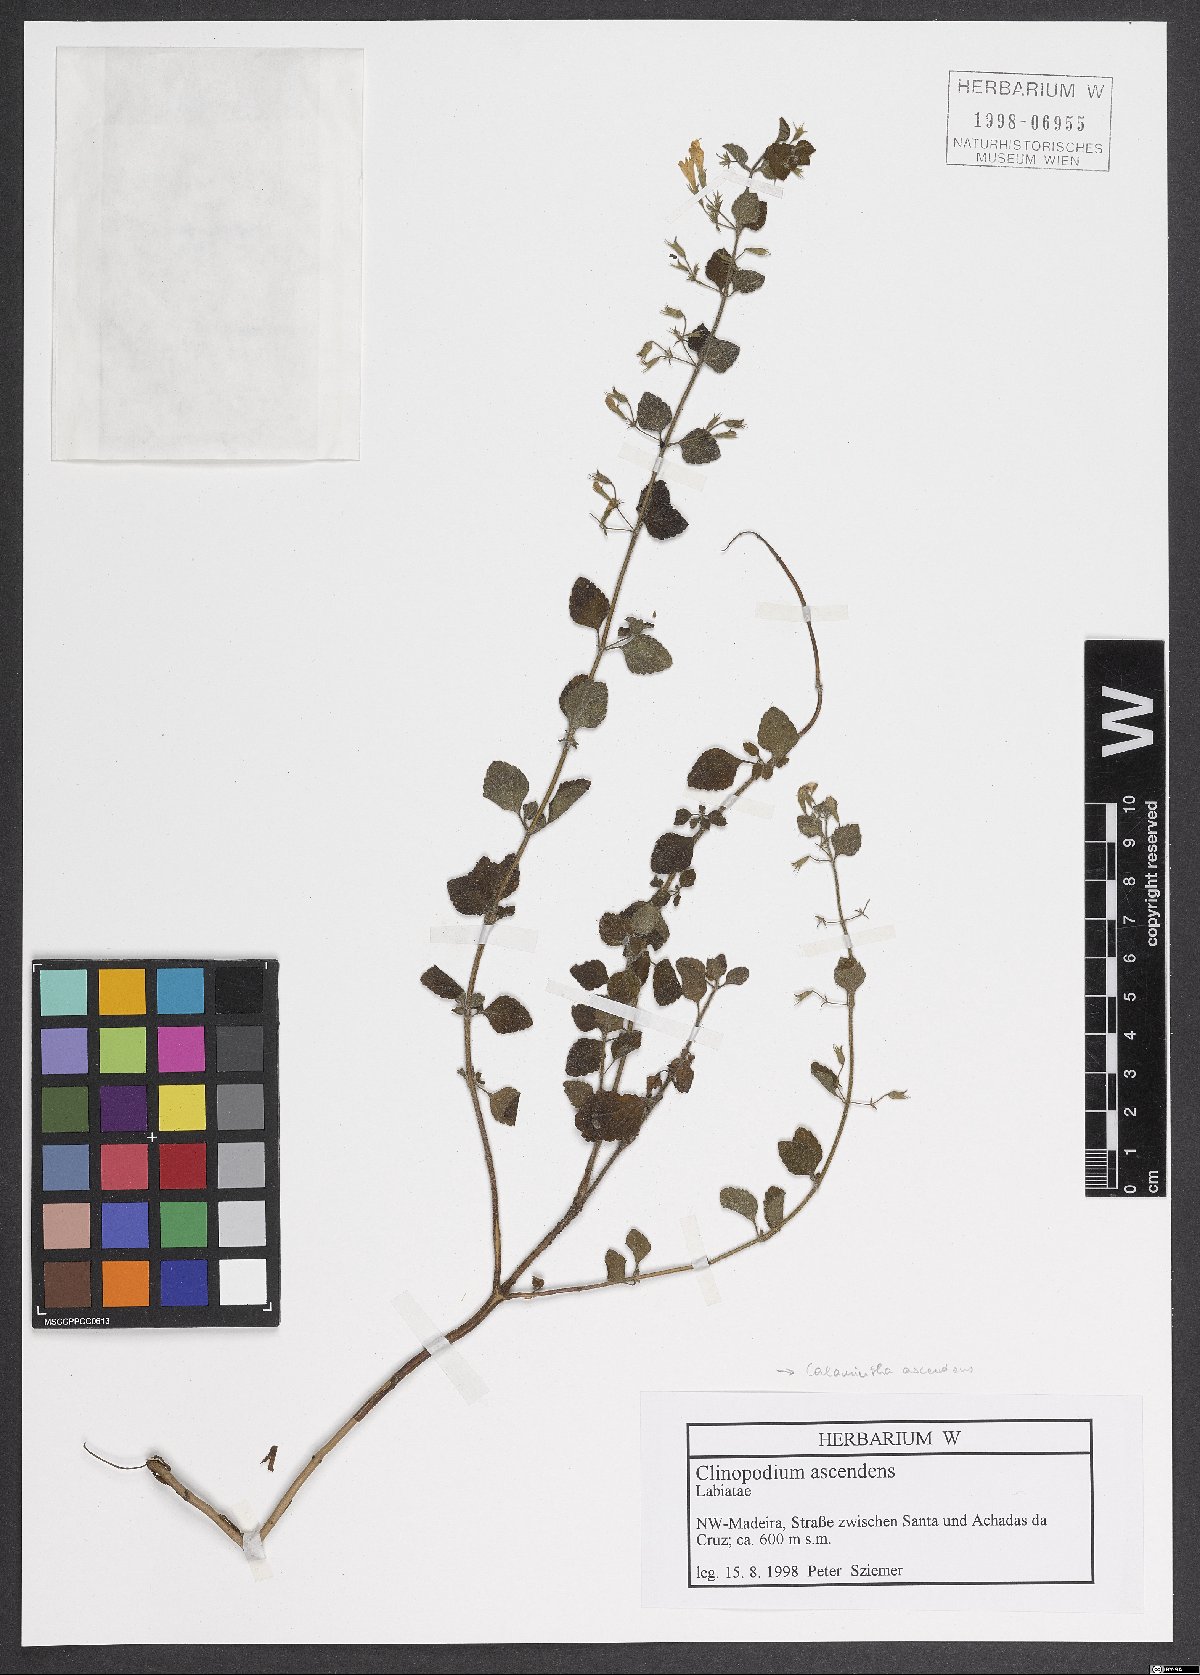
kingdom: Plantae
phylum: Tracheophyta
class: Magnoliopsida
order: Lamiales
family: Lamiaceae
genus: Clinopodium
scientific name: Clinopodium menthifolium
